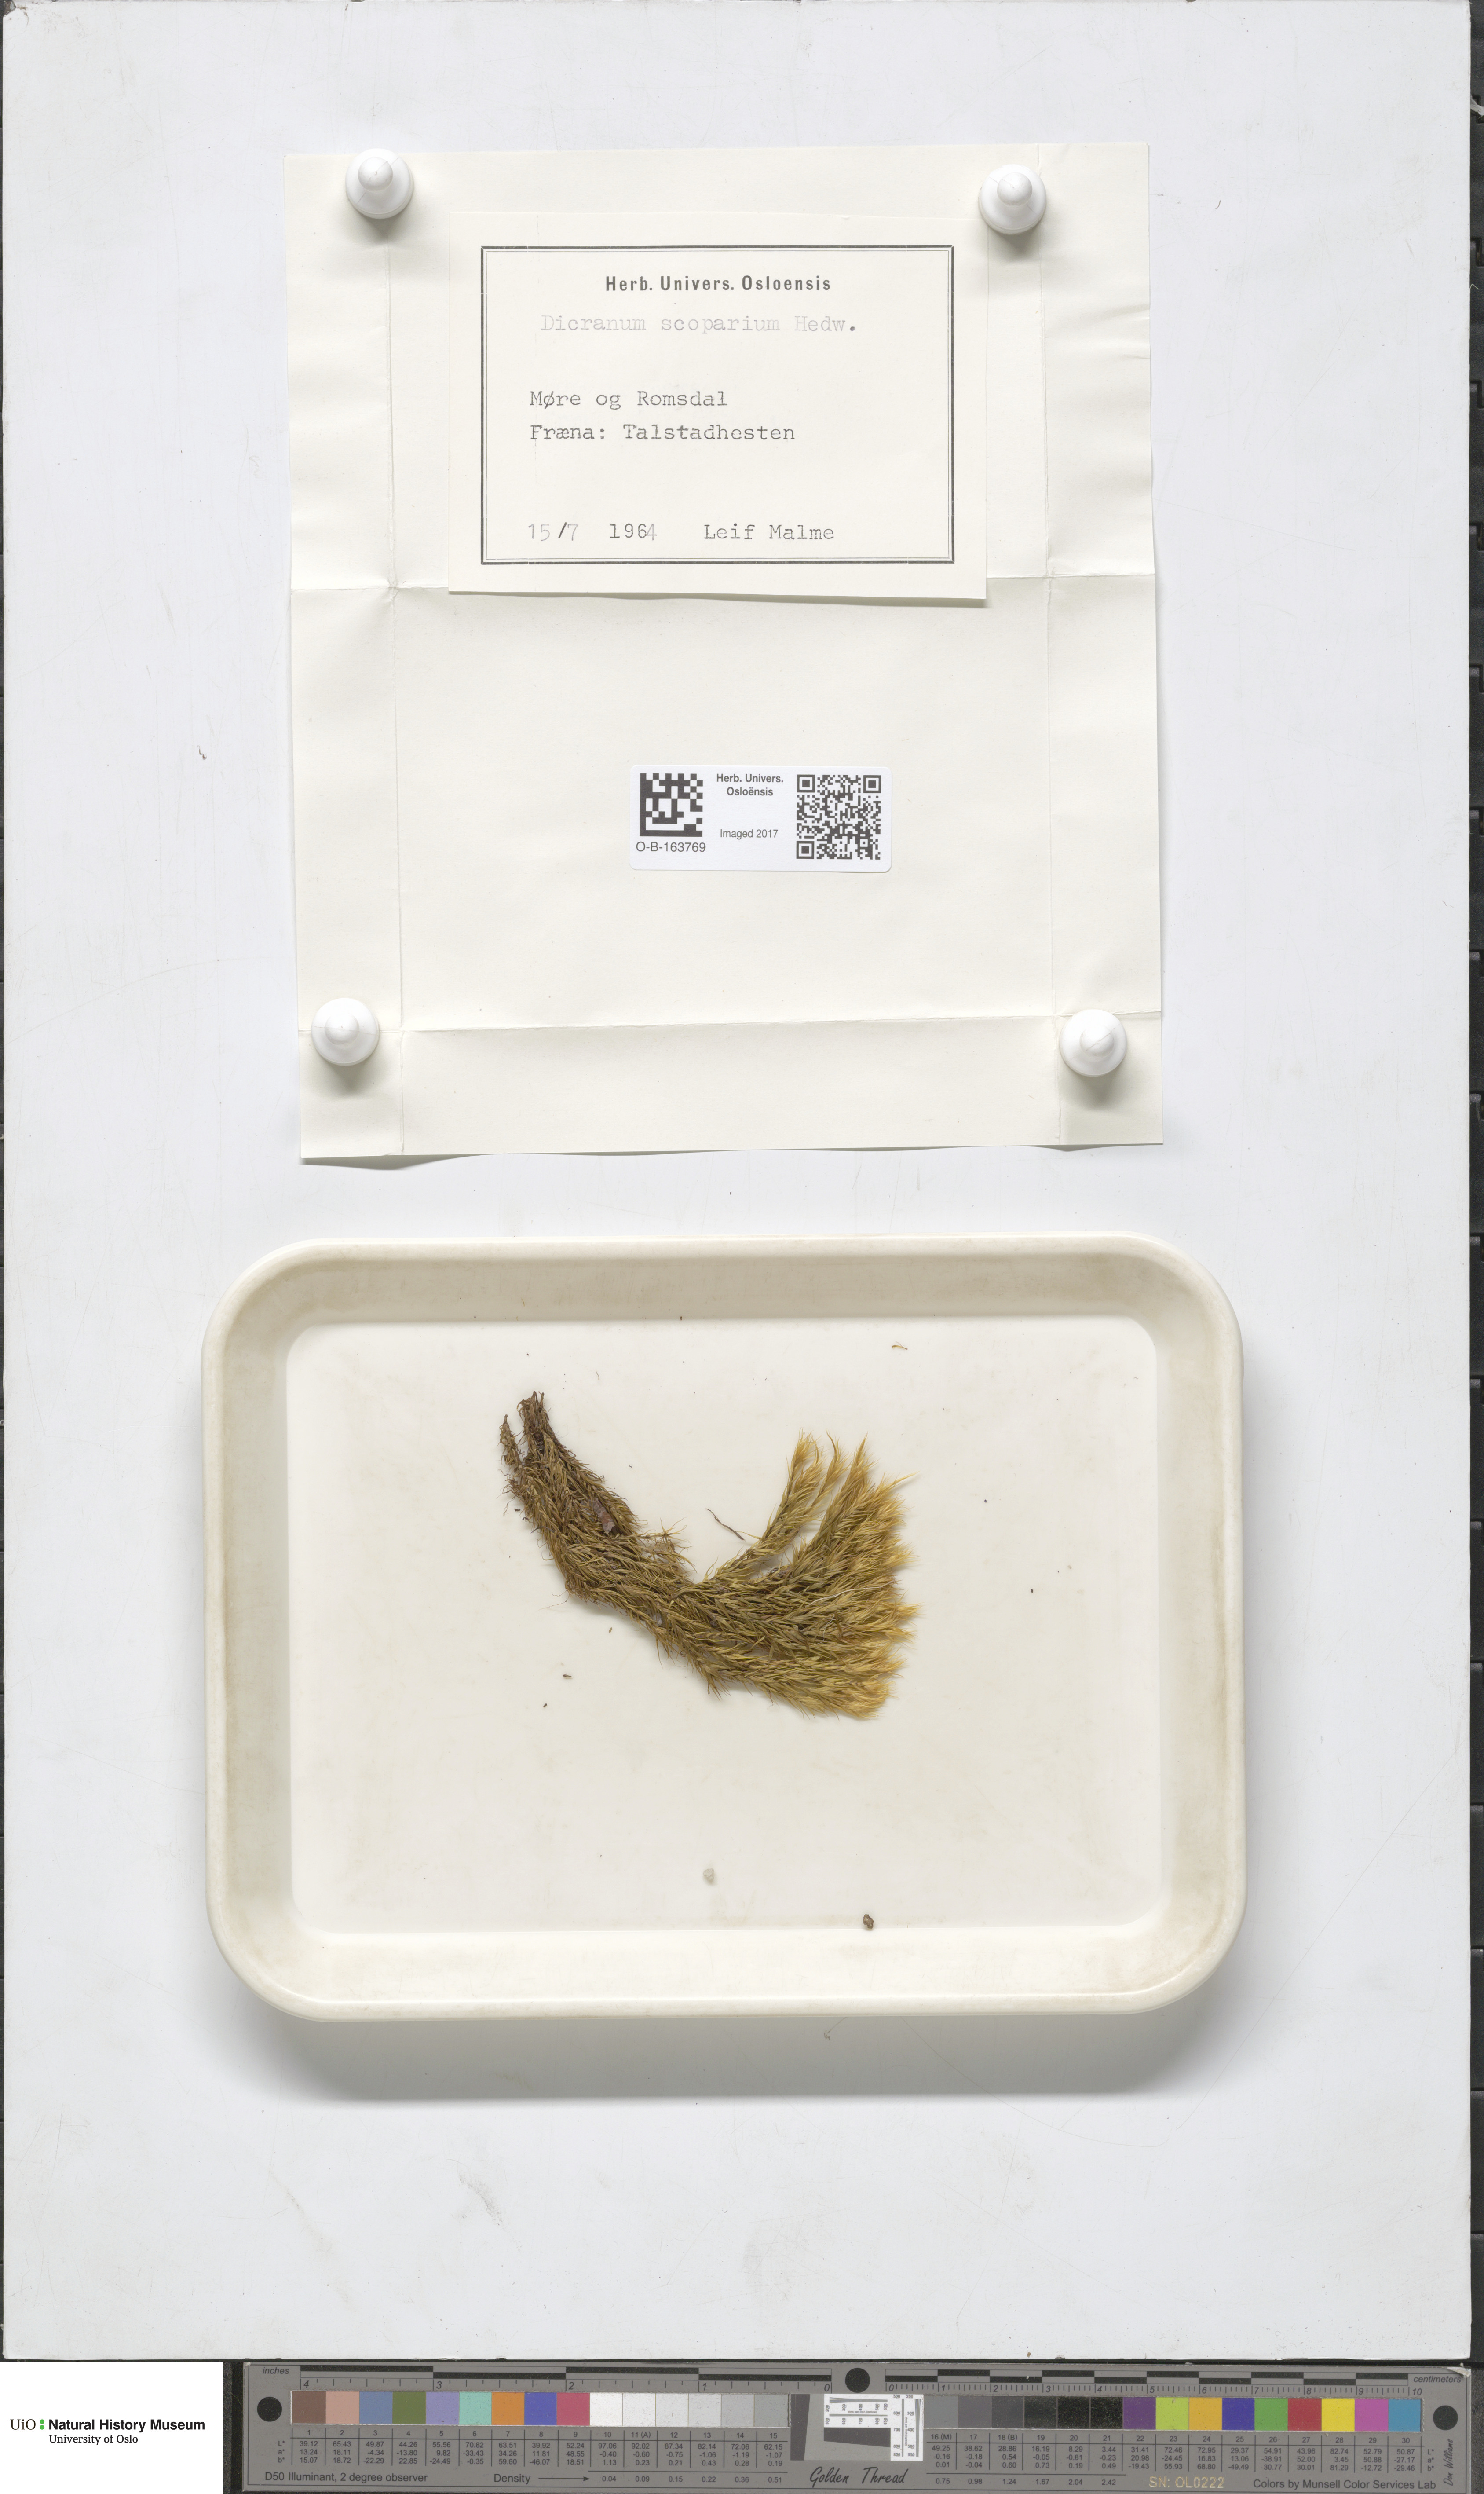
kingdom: Plantae
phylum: Bryophyta
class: Bryopsida
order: Dicranales
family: Dicranaceae
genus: Dicranum
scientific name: Dicranum scoparium
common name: Broom fork-moss
